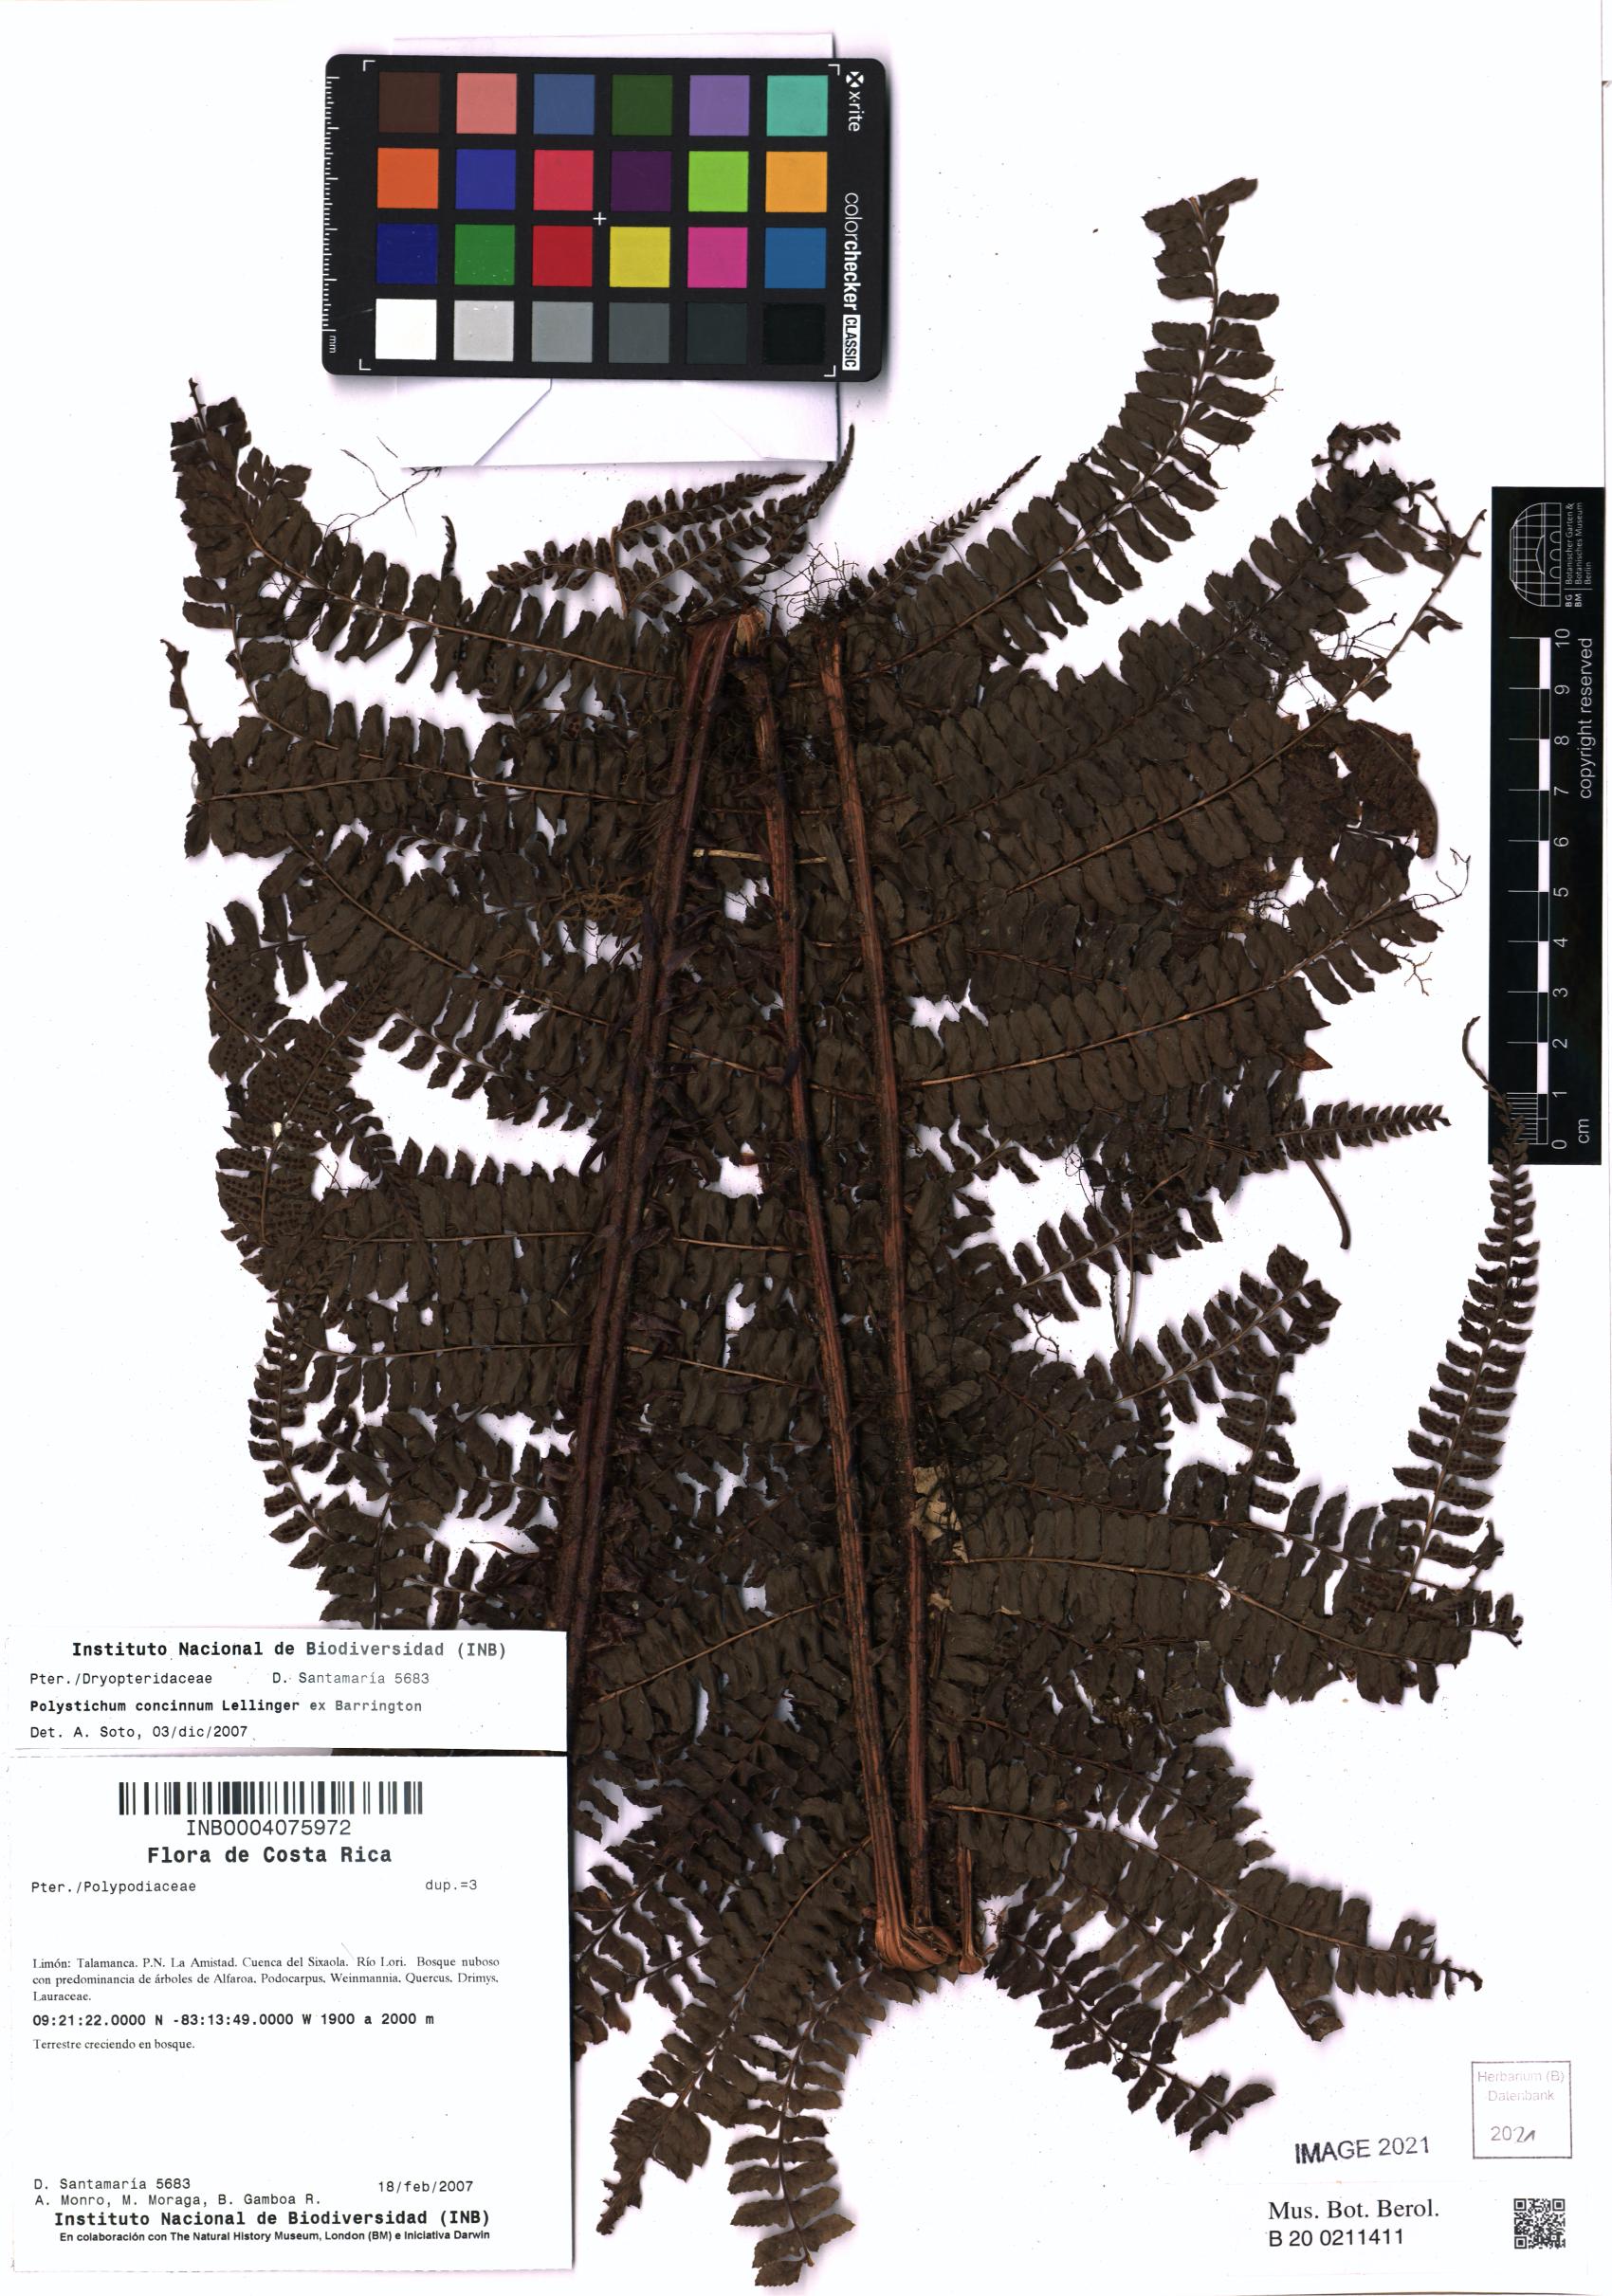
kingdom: Plantae
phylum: Tracheophyta
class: Polypodiopsida
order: Polypodiales
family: Dryopteridaceae
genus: Polystichum
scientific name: Polystichum concinnum
